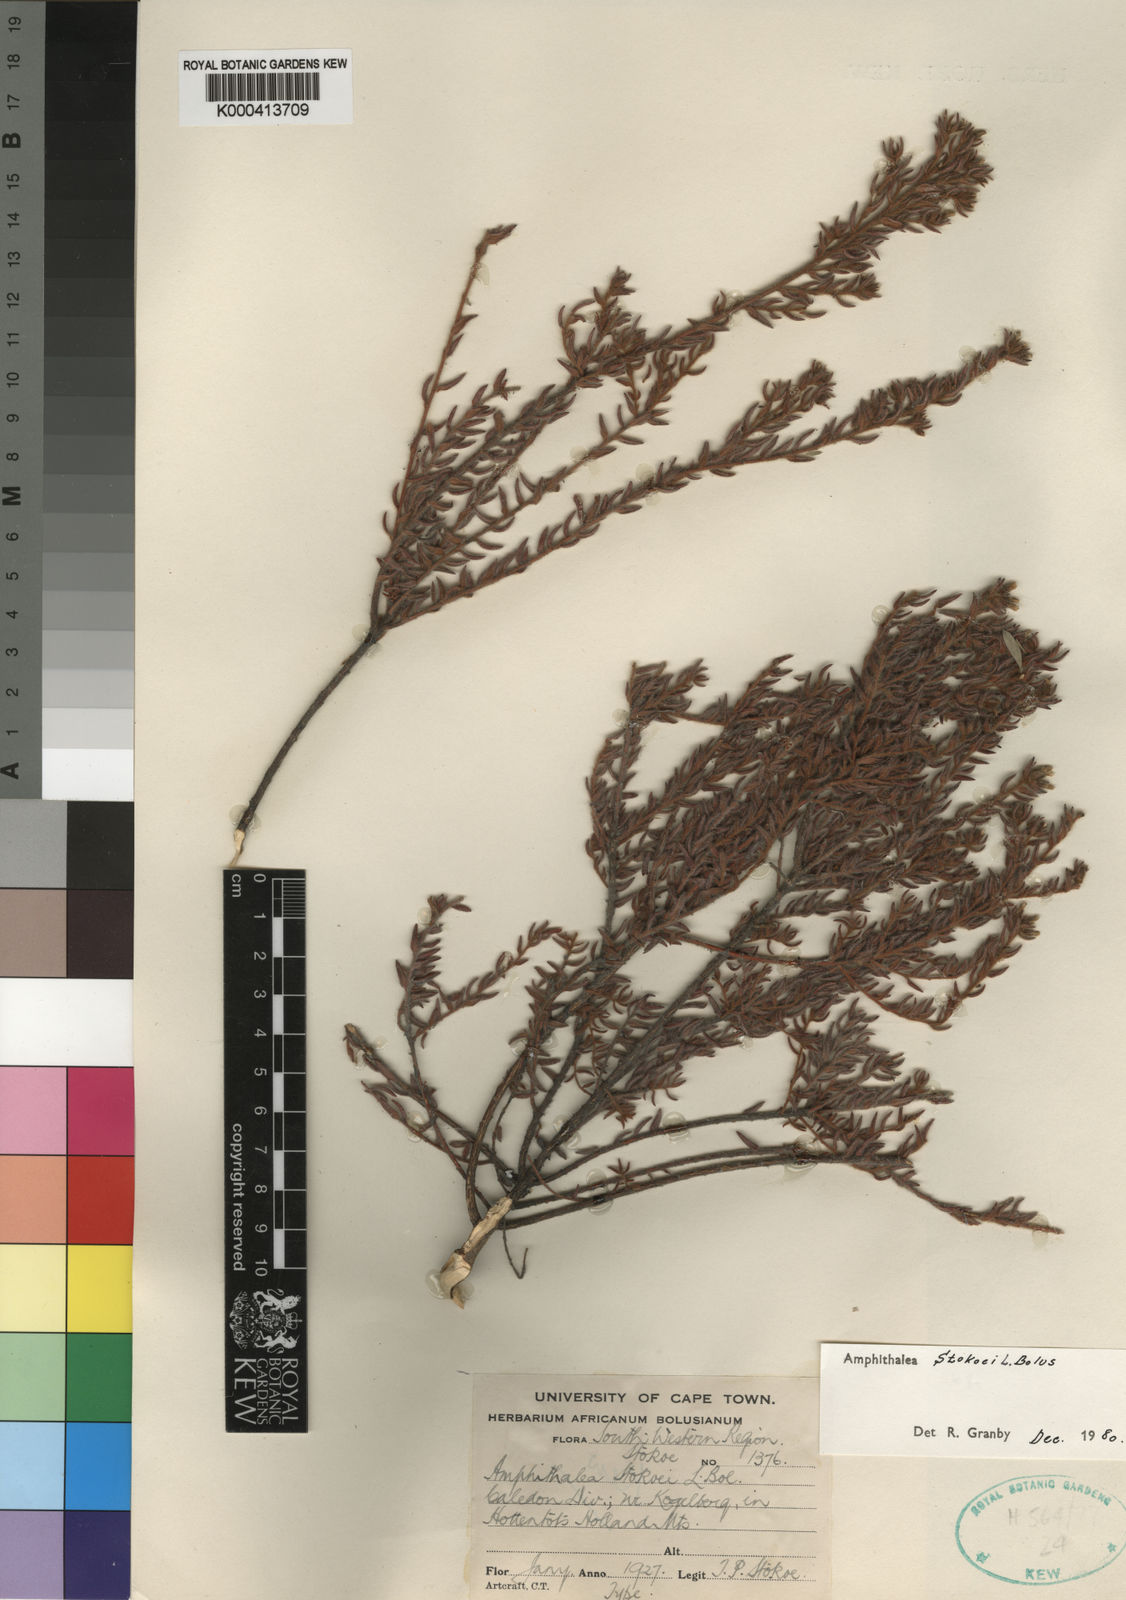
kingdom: Plantae
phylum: Tracheophyta
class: Magnoliopsida
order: Fabales
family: Fabaceae
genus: Amphithalea
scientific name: Amphithalea stokoei
